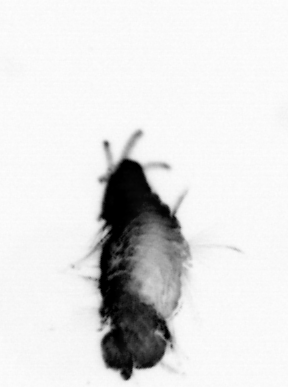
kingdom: Animalia
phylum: Annelida
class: Polychaeta
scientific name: Polychaeta
